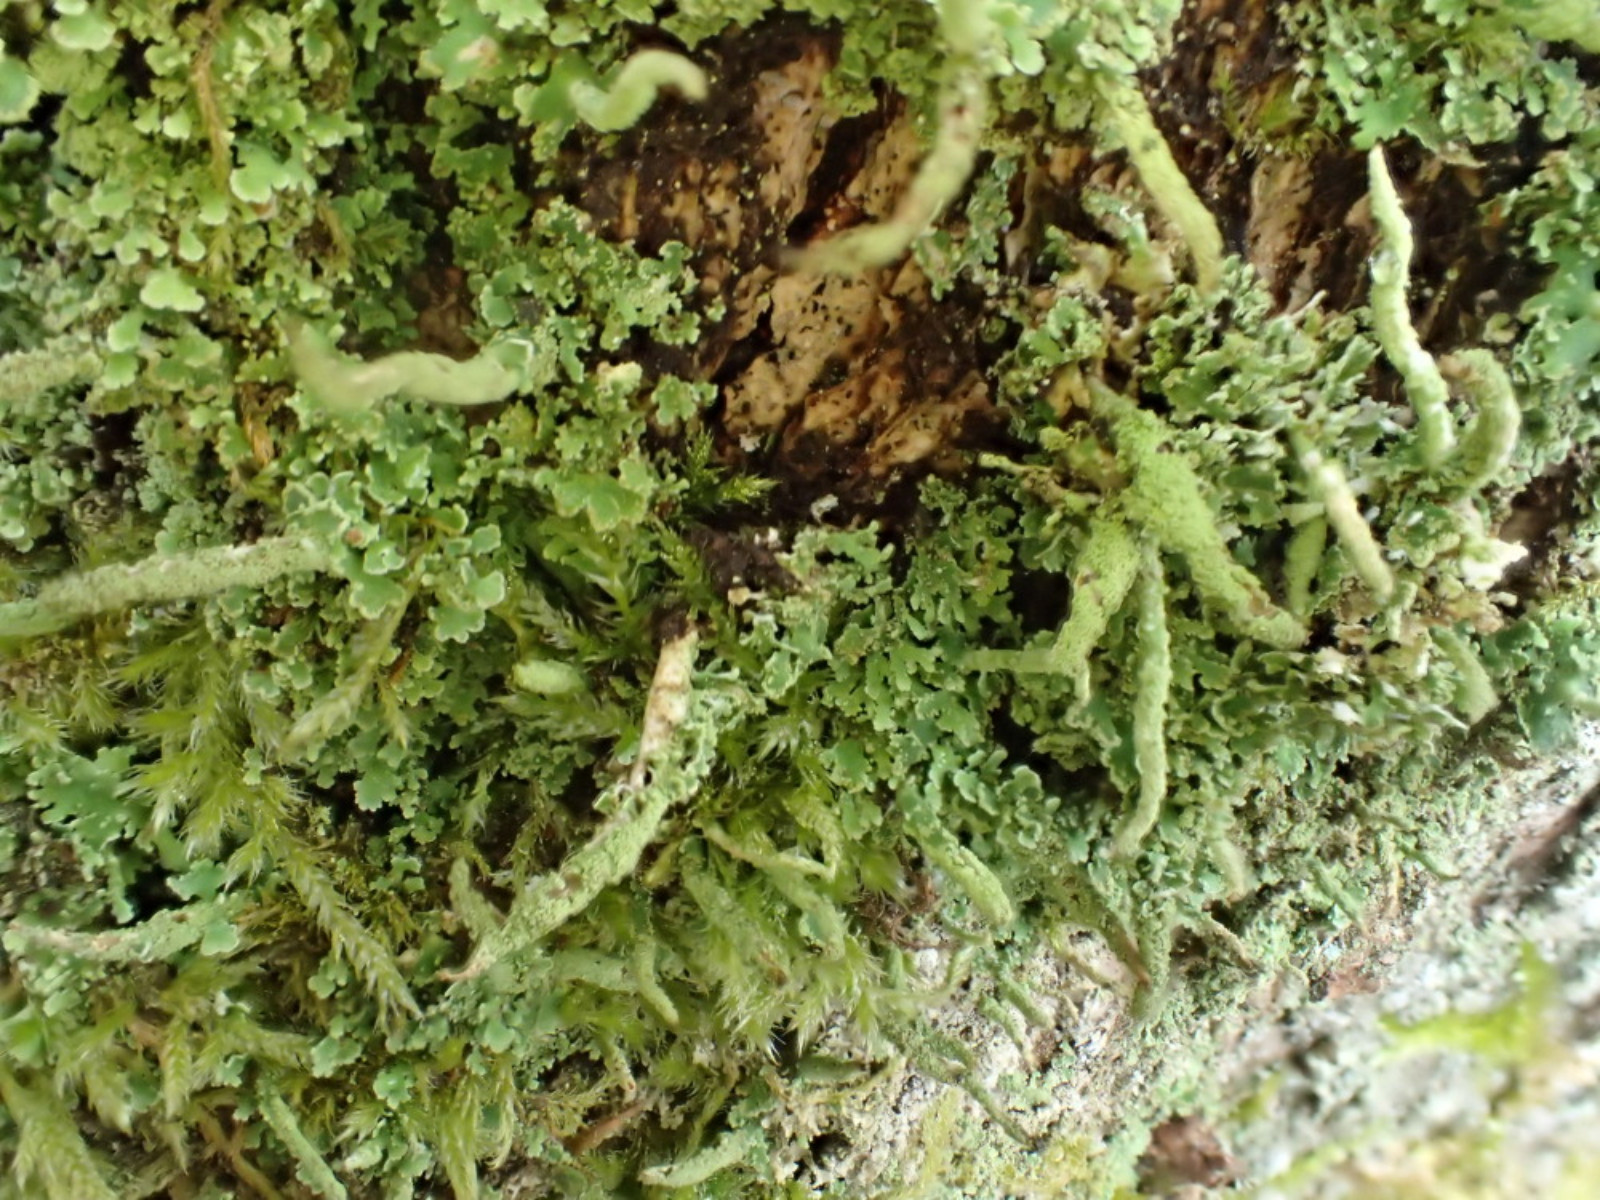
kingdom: Fungi
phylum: Ascomycota
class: Lecanoromycetes
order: Lecanorales
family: Cladoniaceae
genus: Cladonia
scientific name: Cladonia coniocraea
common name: træfods-bægerlav
